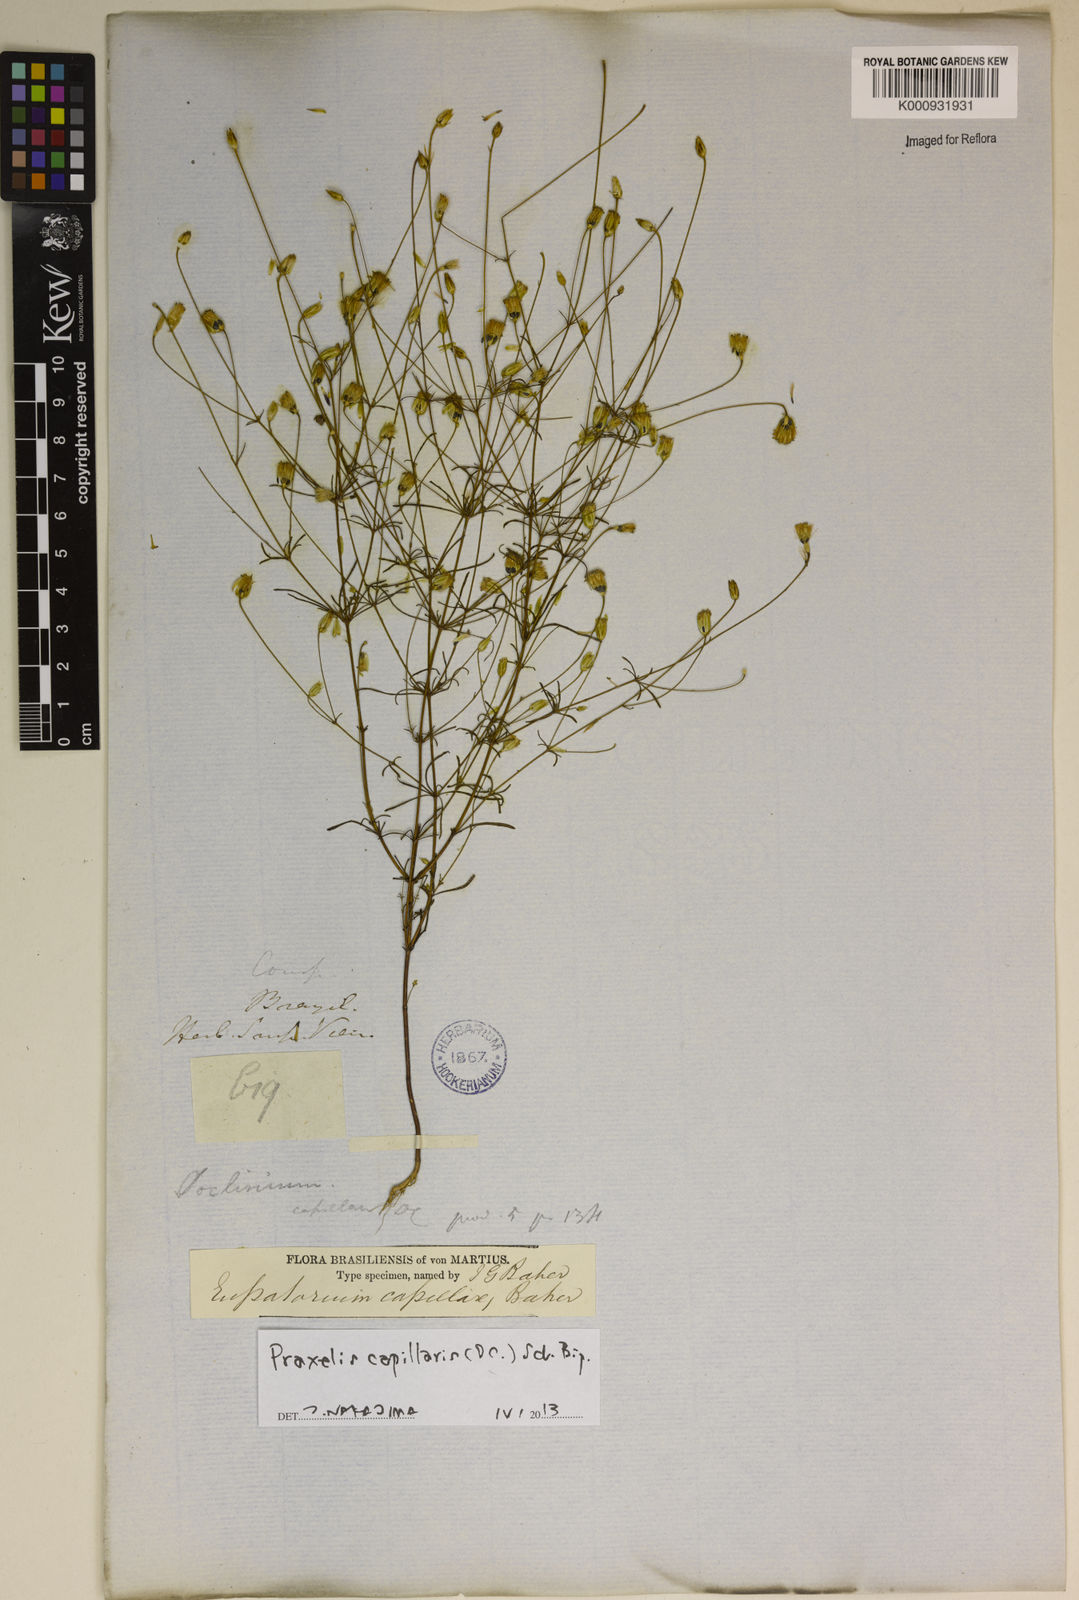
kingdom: Plantae
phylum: Tracheophyta
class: Magnoliopsida
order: Asterales
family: Asteraceae
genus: Praxelis
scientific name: Praxelis capillaris
